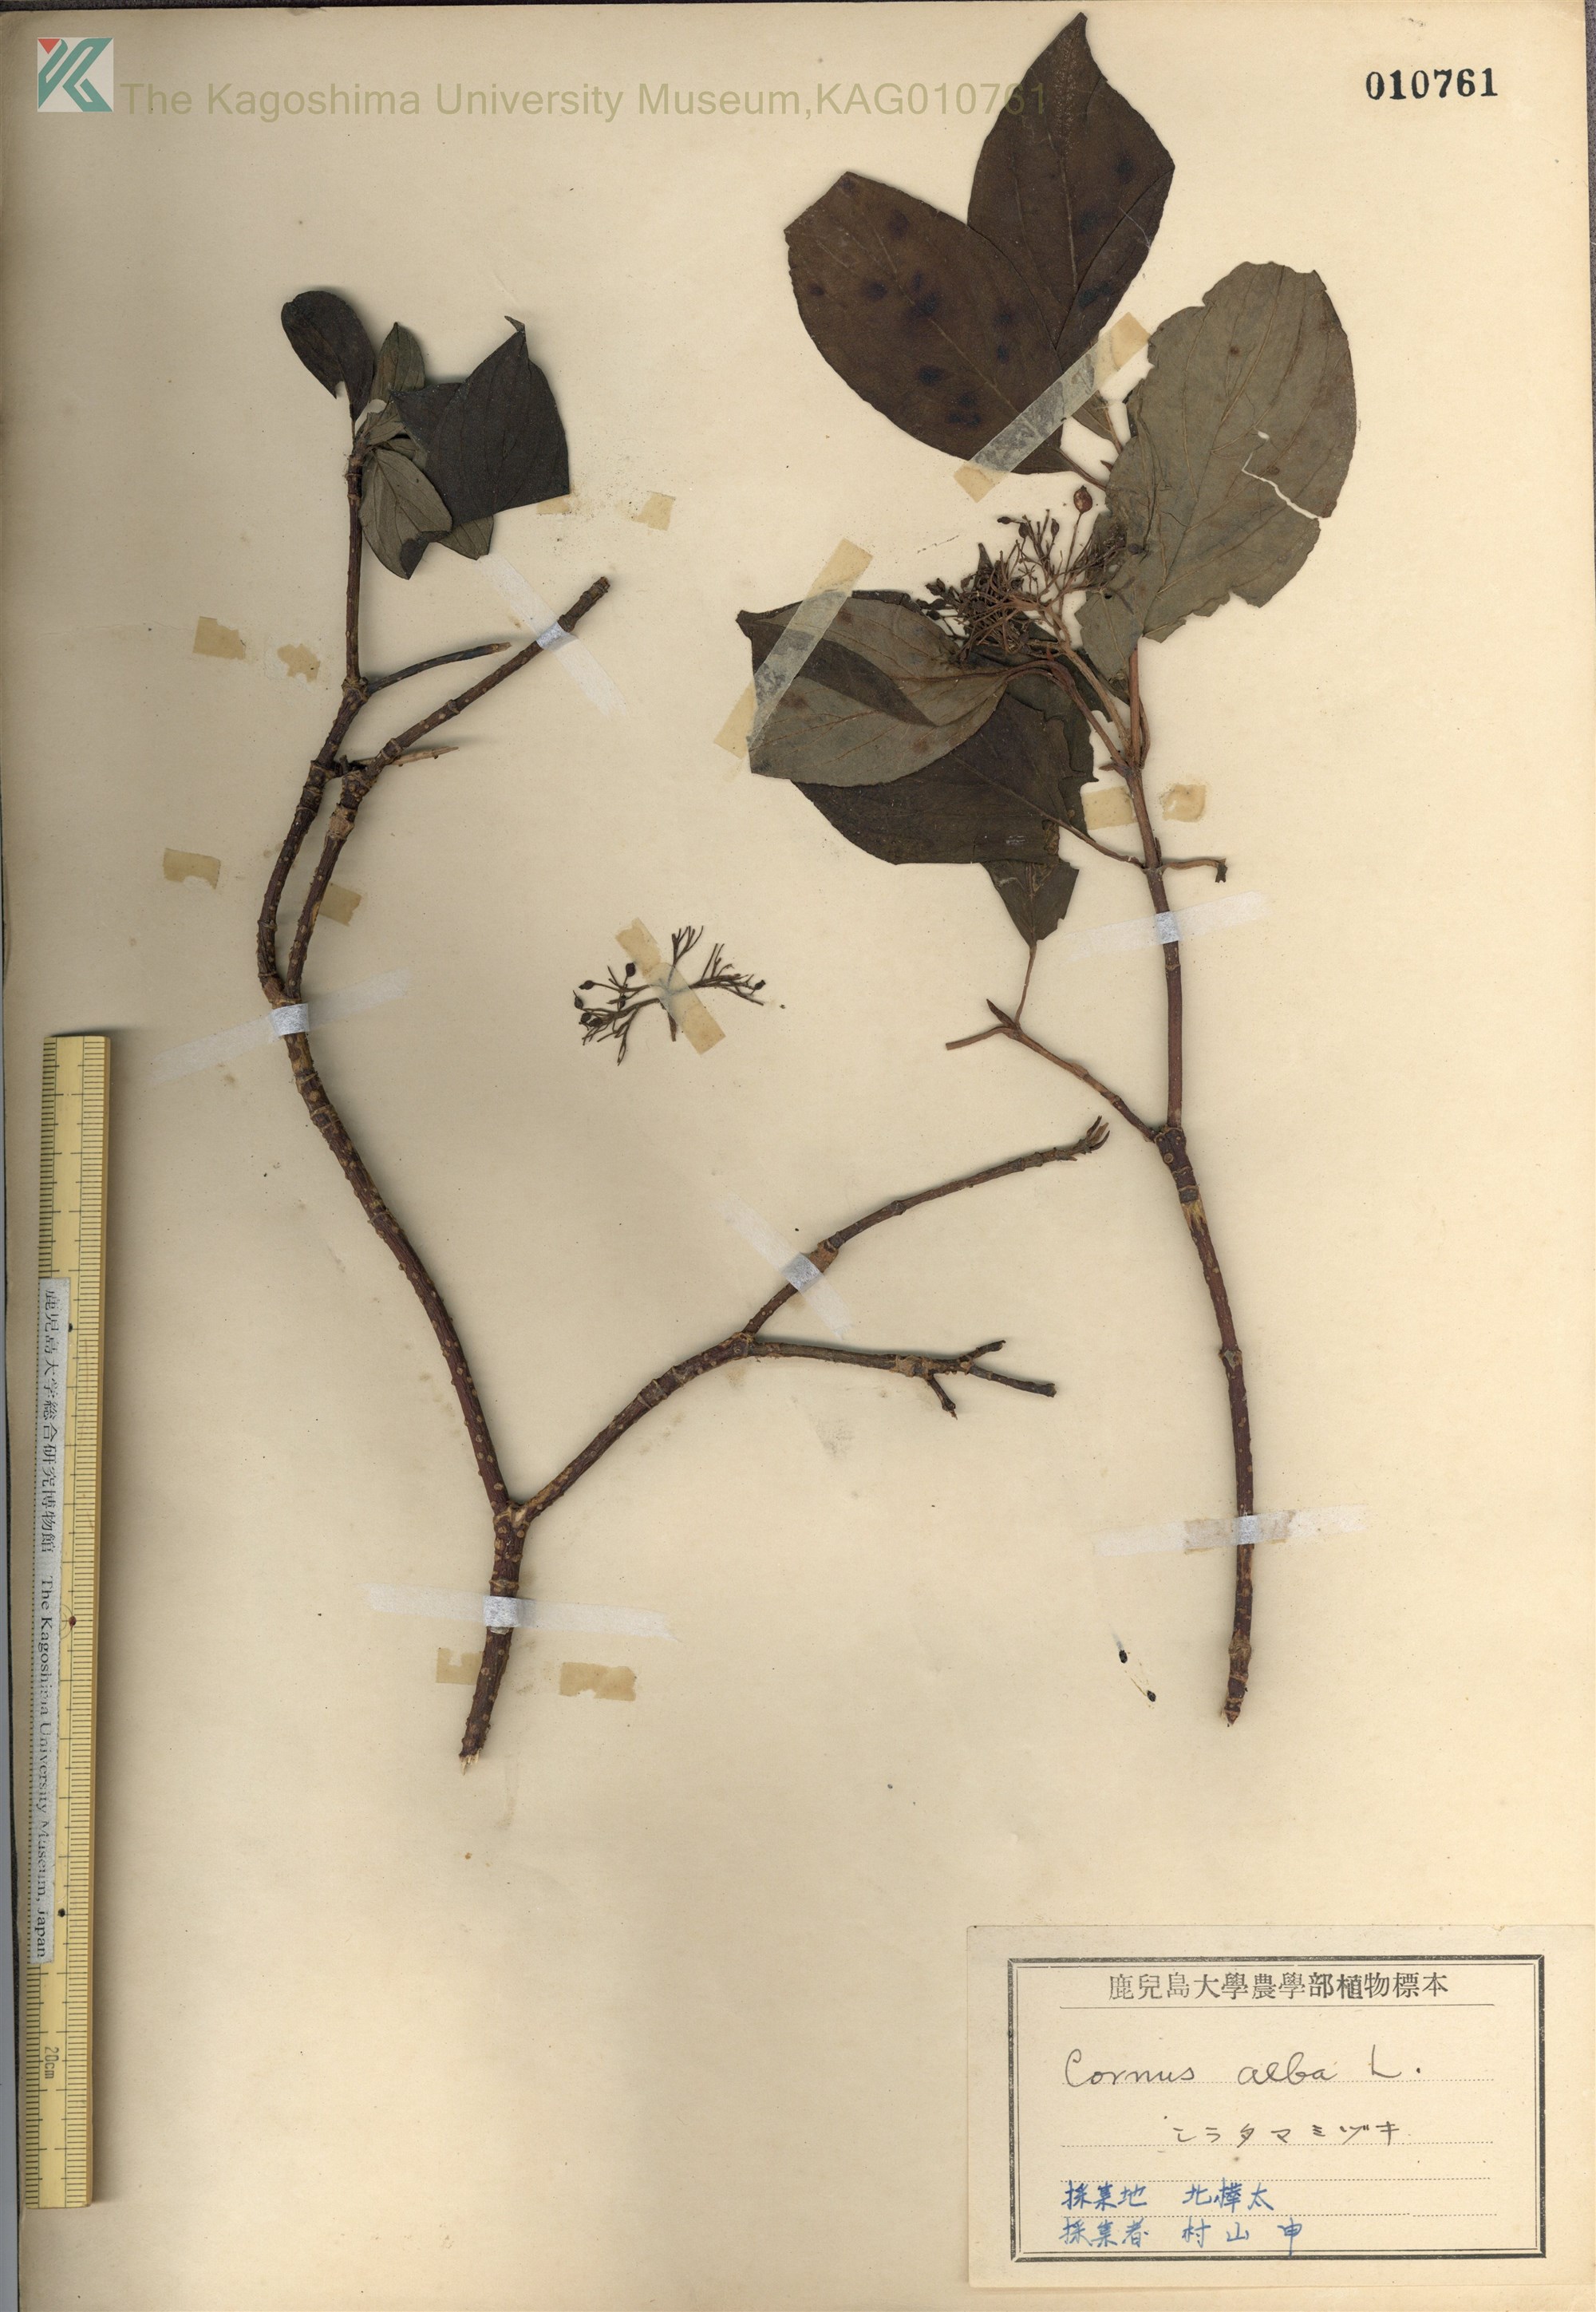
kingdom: Plantae
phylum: Tracheophyta
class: Magnoliopsida
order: Cornales
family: Cornaceae
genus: Cornus
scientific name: Cornus alba
